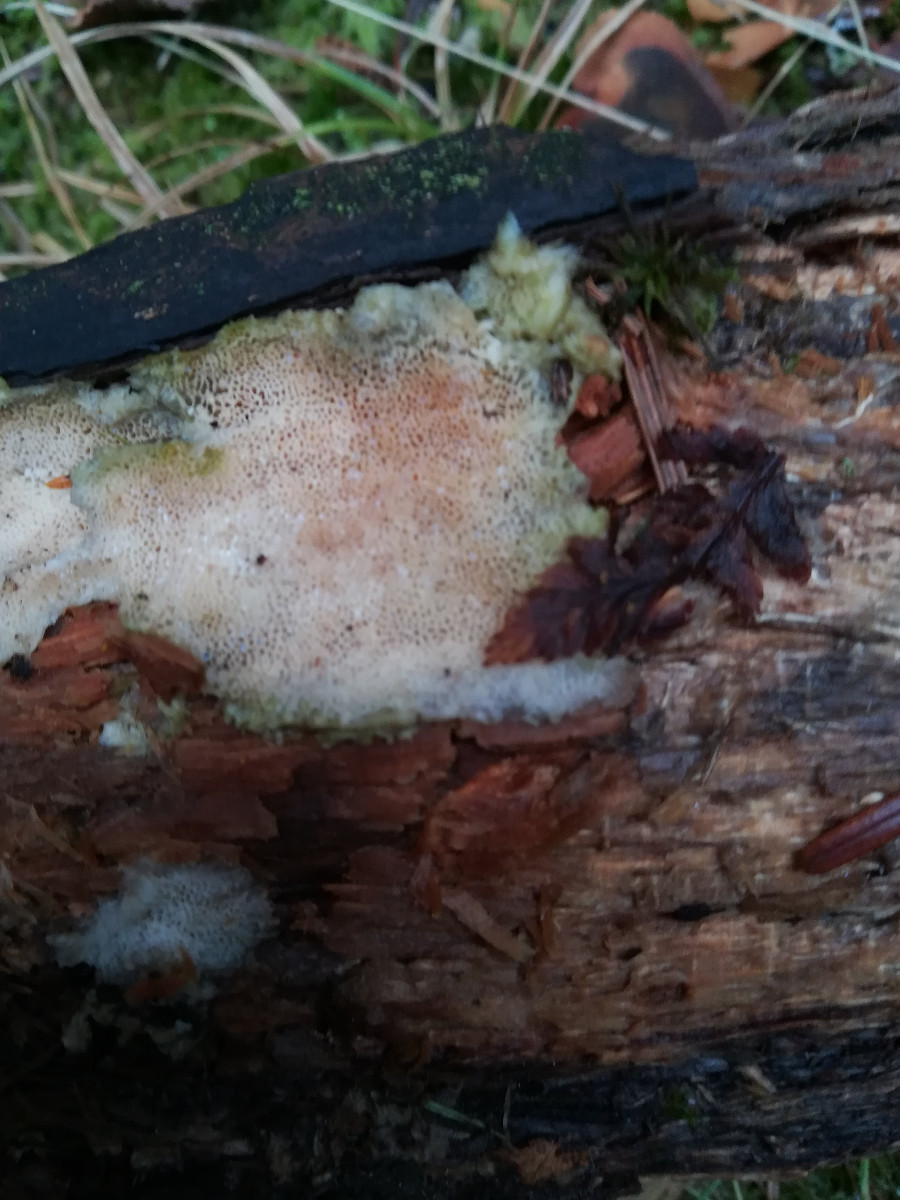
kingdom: Fungi
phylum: Basidiomycota
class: Agaricomycetes
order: Polyporales
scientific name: Polyporales
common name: poresvampordenen
